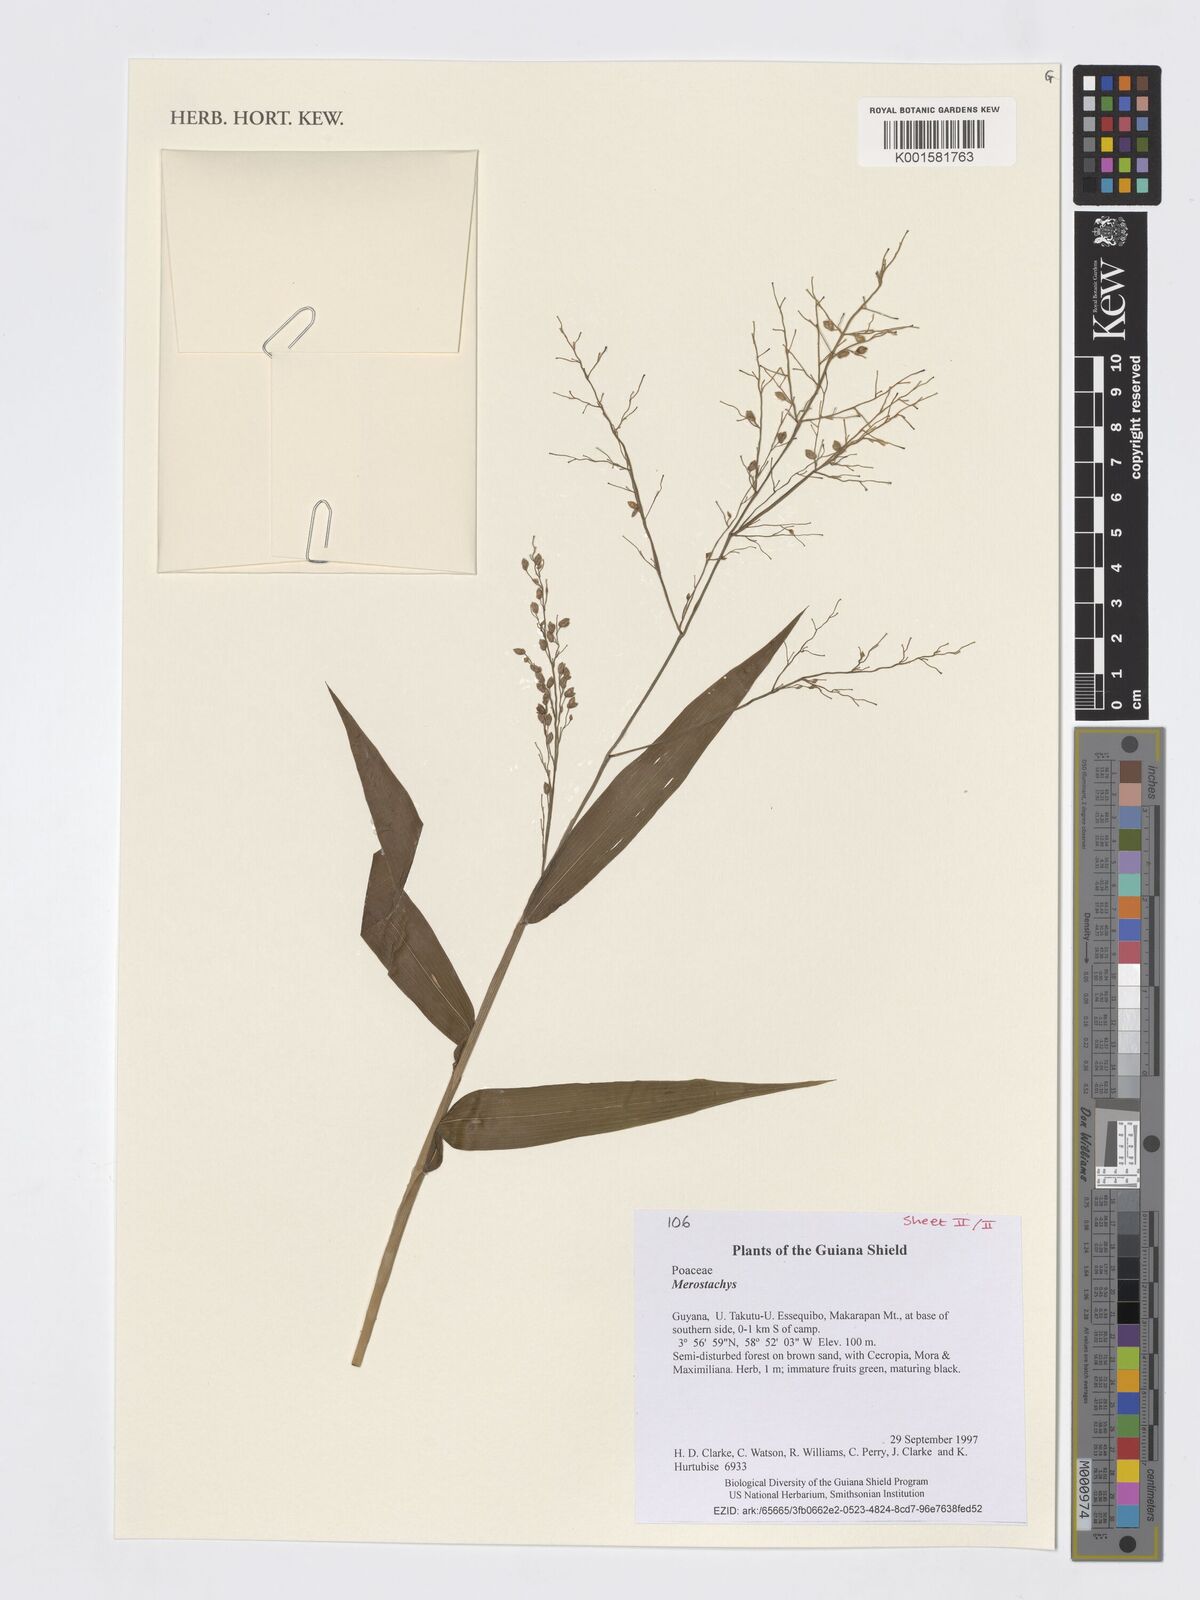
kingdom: Plantae
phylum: Tracheophyta
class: Liliopsida
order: Poales
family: Poaceae
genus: Merostachys
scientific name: Merostachys
